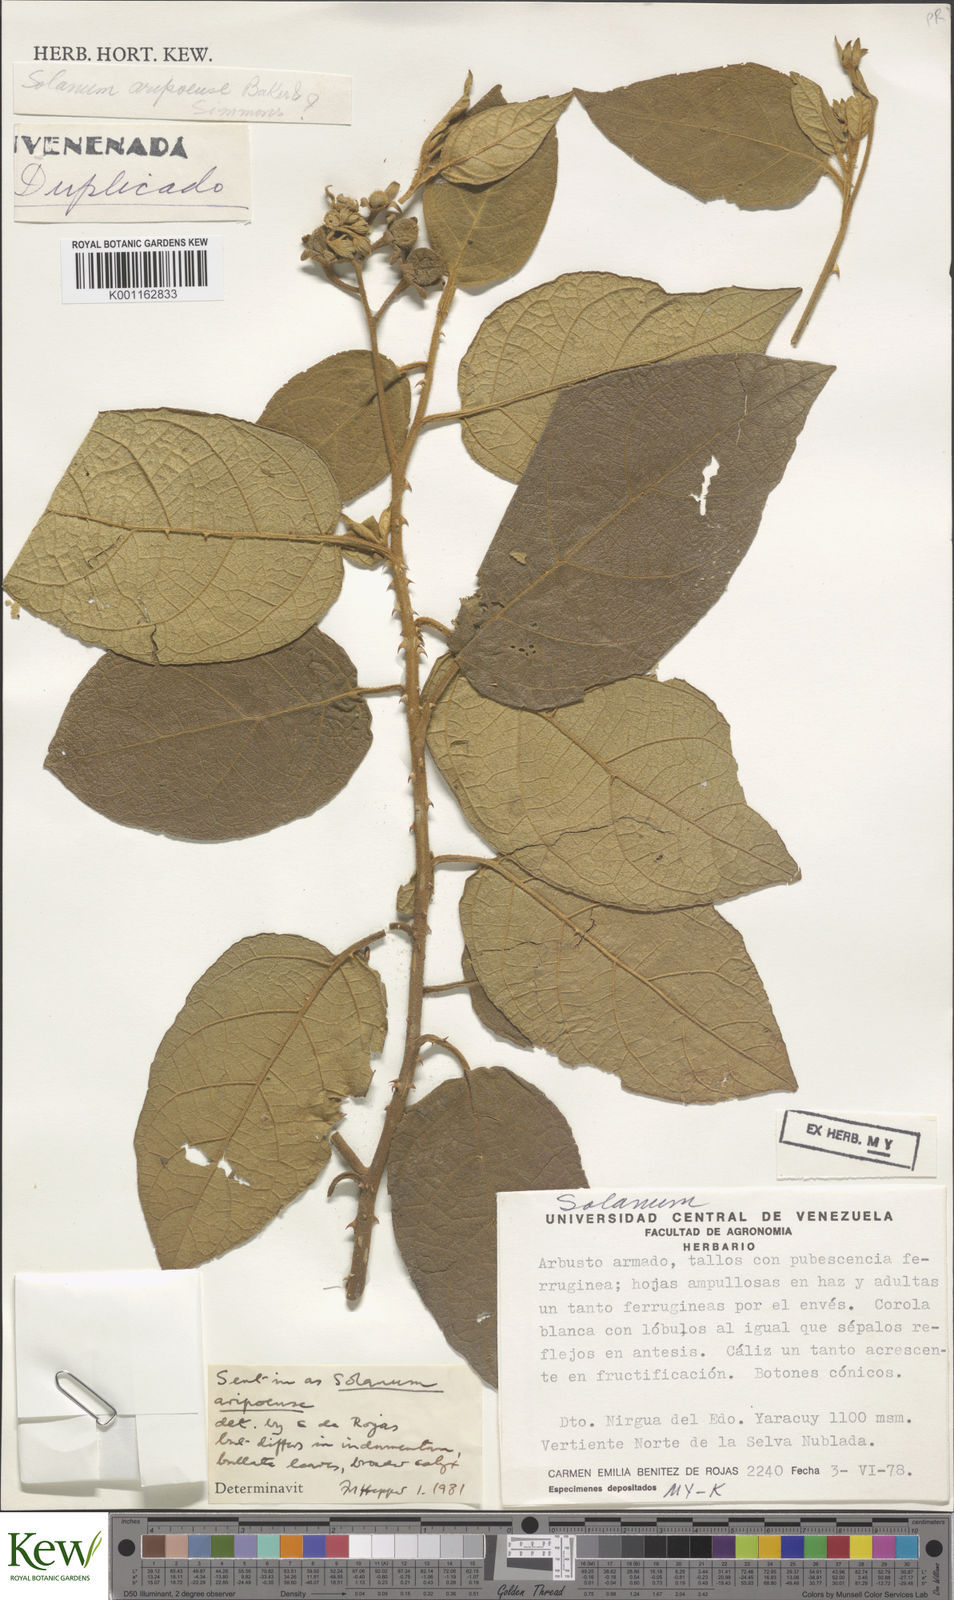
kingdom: Plantae
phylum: Tracheophyta
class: Magnoliopsida
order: Solanales
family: Solanaceae
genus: Solanum
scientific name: Solanum velutinum
